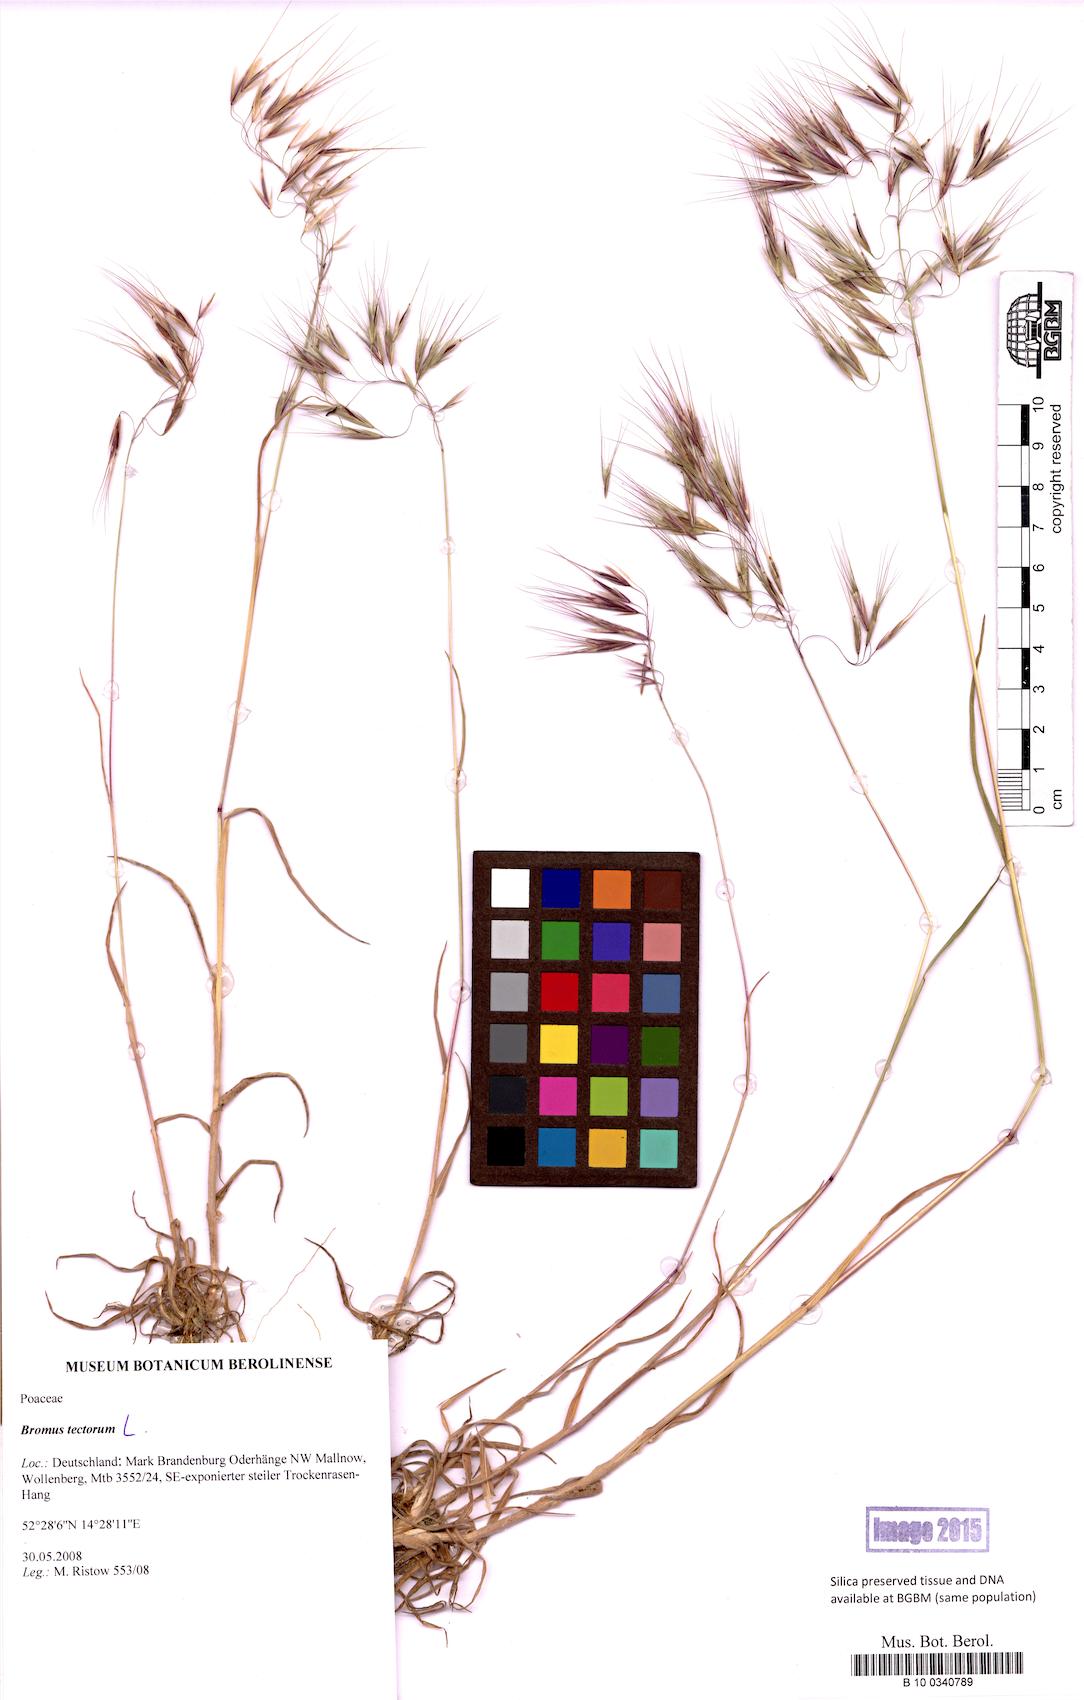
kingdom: Plantae
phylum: Tracheophyta
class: Liliopsida
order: Poales
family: Poaceae
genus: Bromus
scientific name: Bromus tectorum
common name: Cheatgrass
